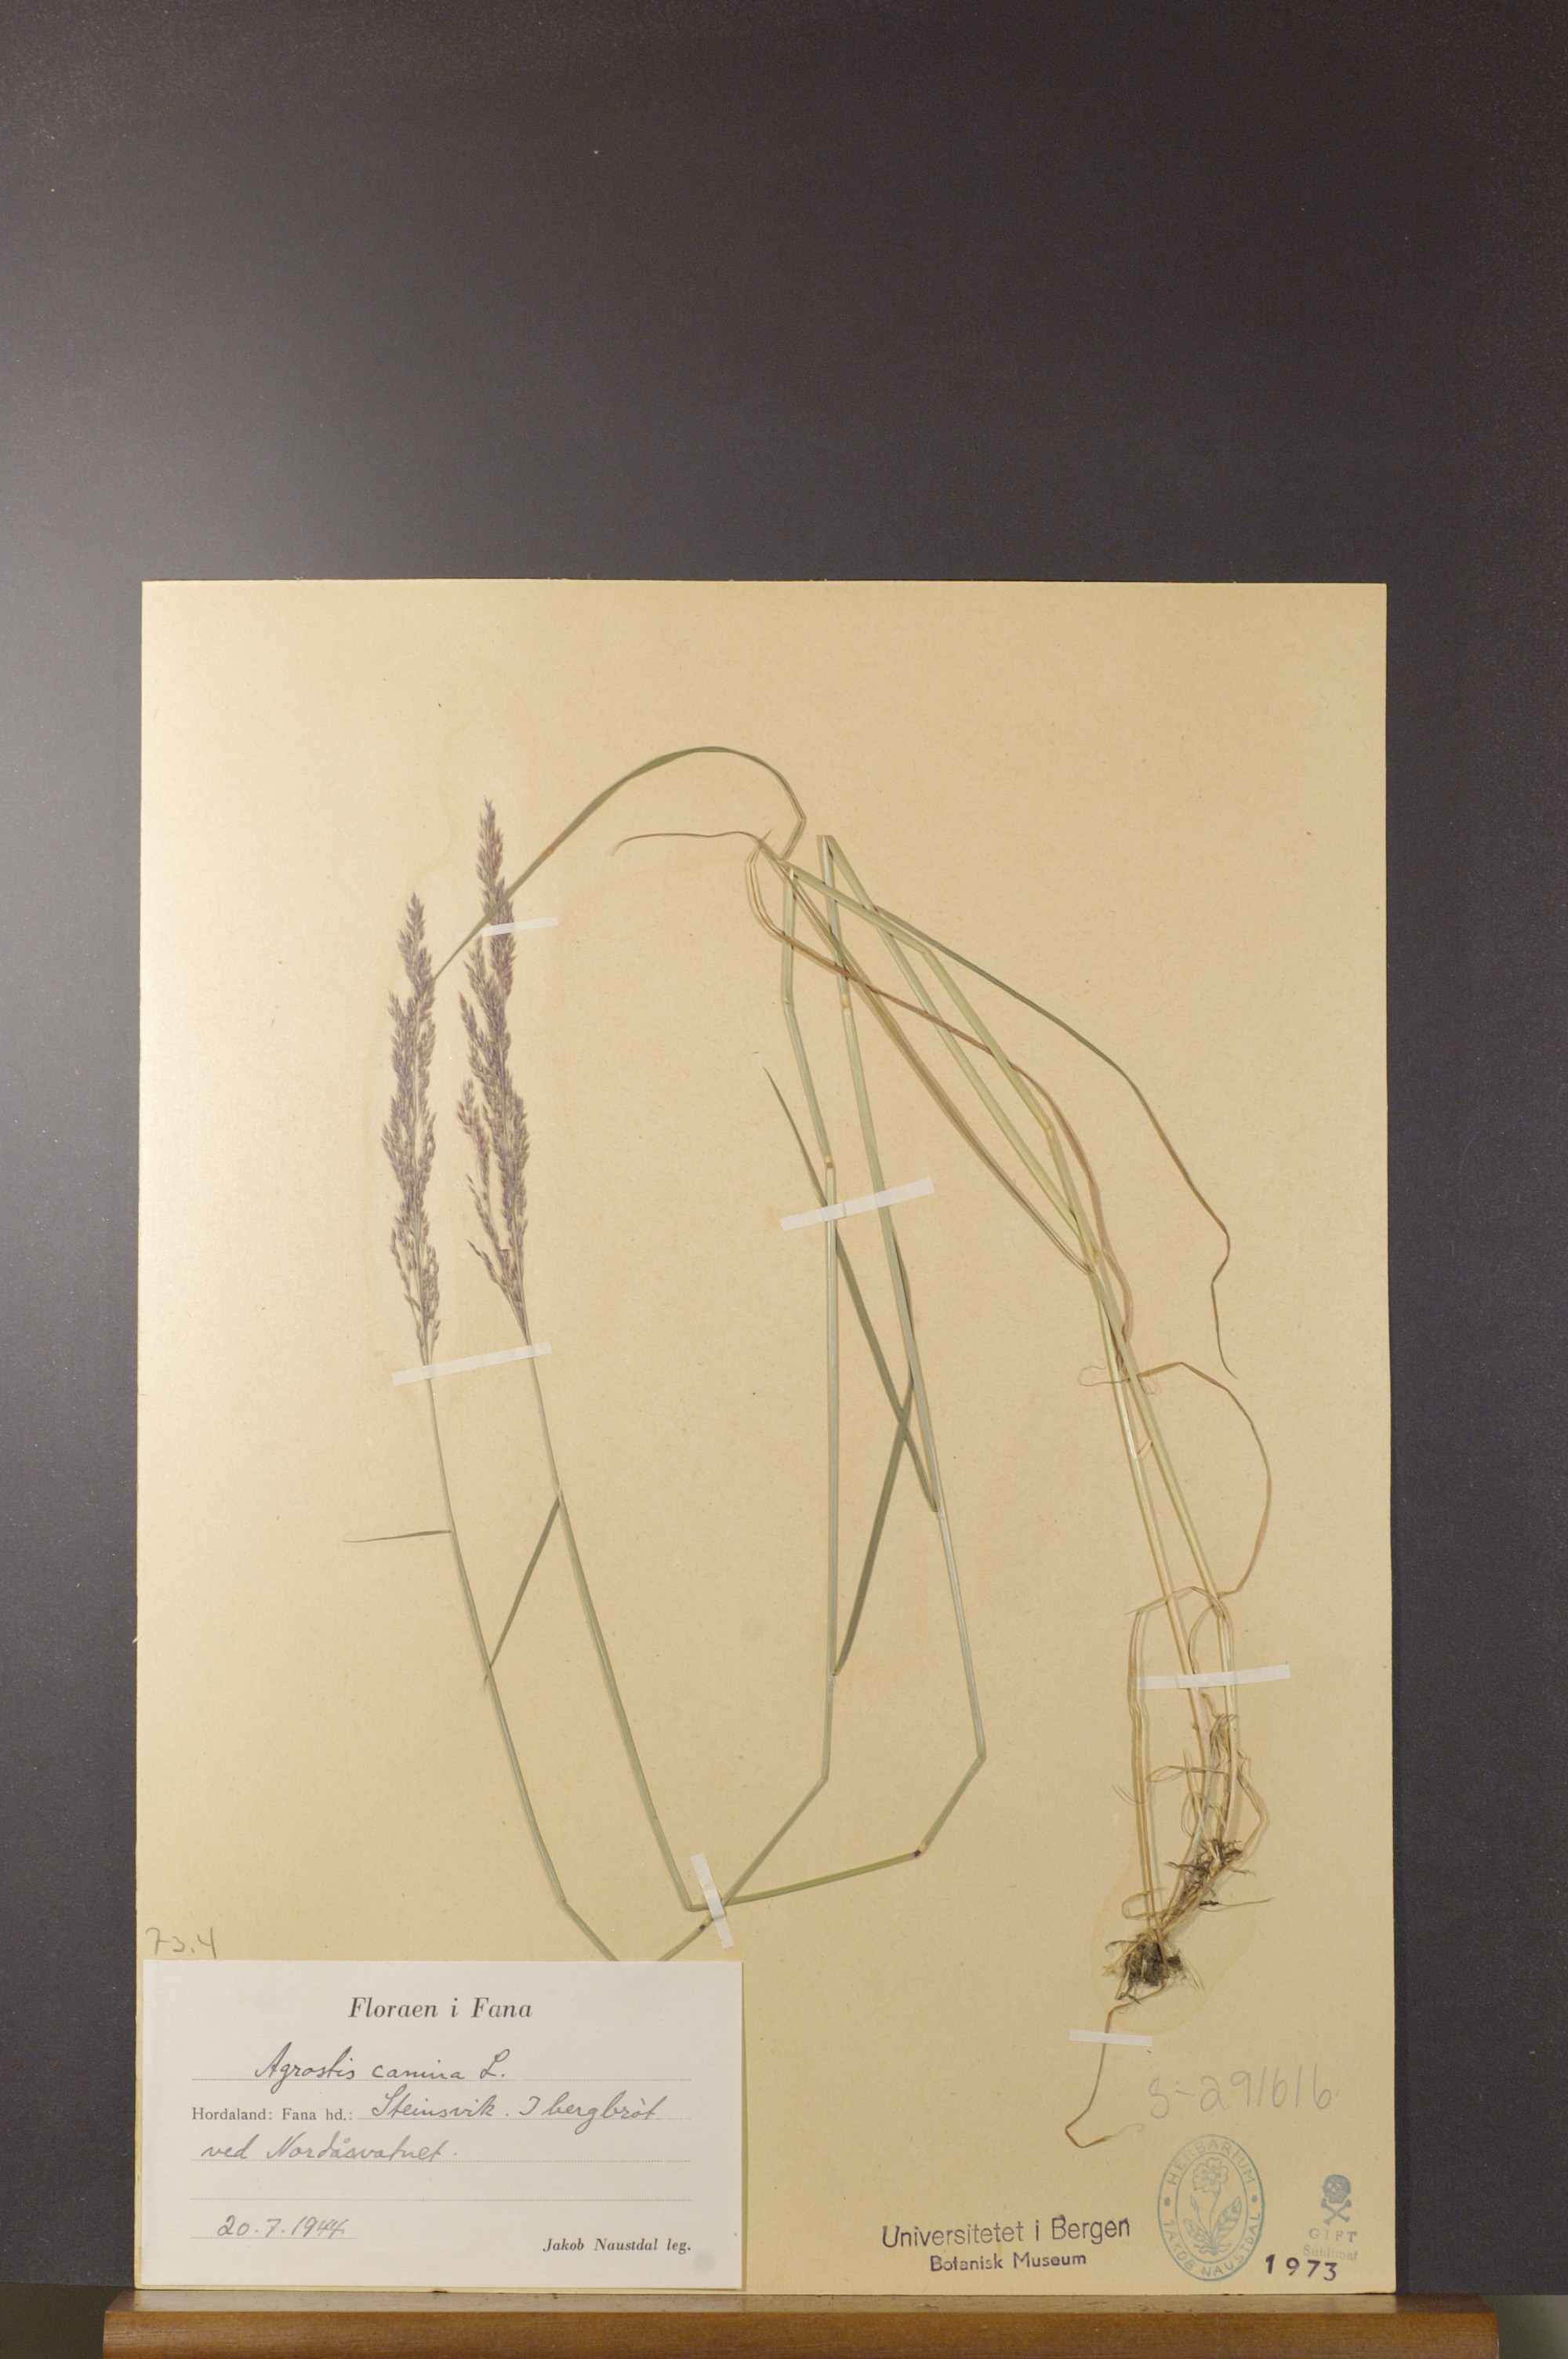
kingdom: Plantae
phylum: Tracheophyta
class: Liliopsida
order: Poales
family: Poaceae
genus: Agrostis
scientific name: Agrostis canina
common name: Velvet bent
